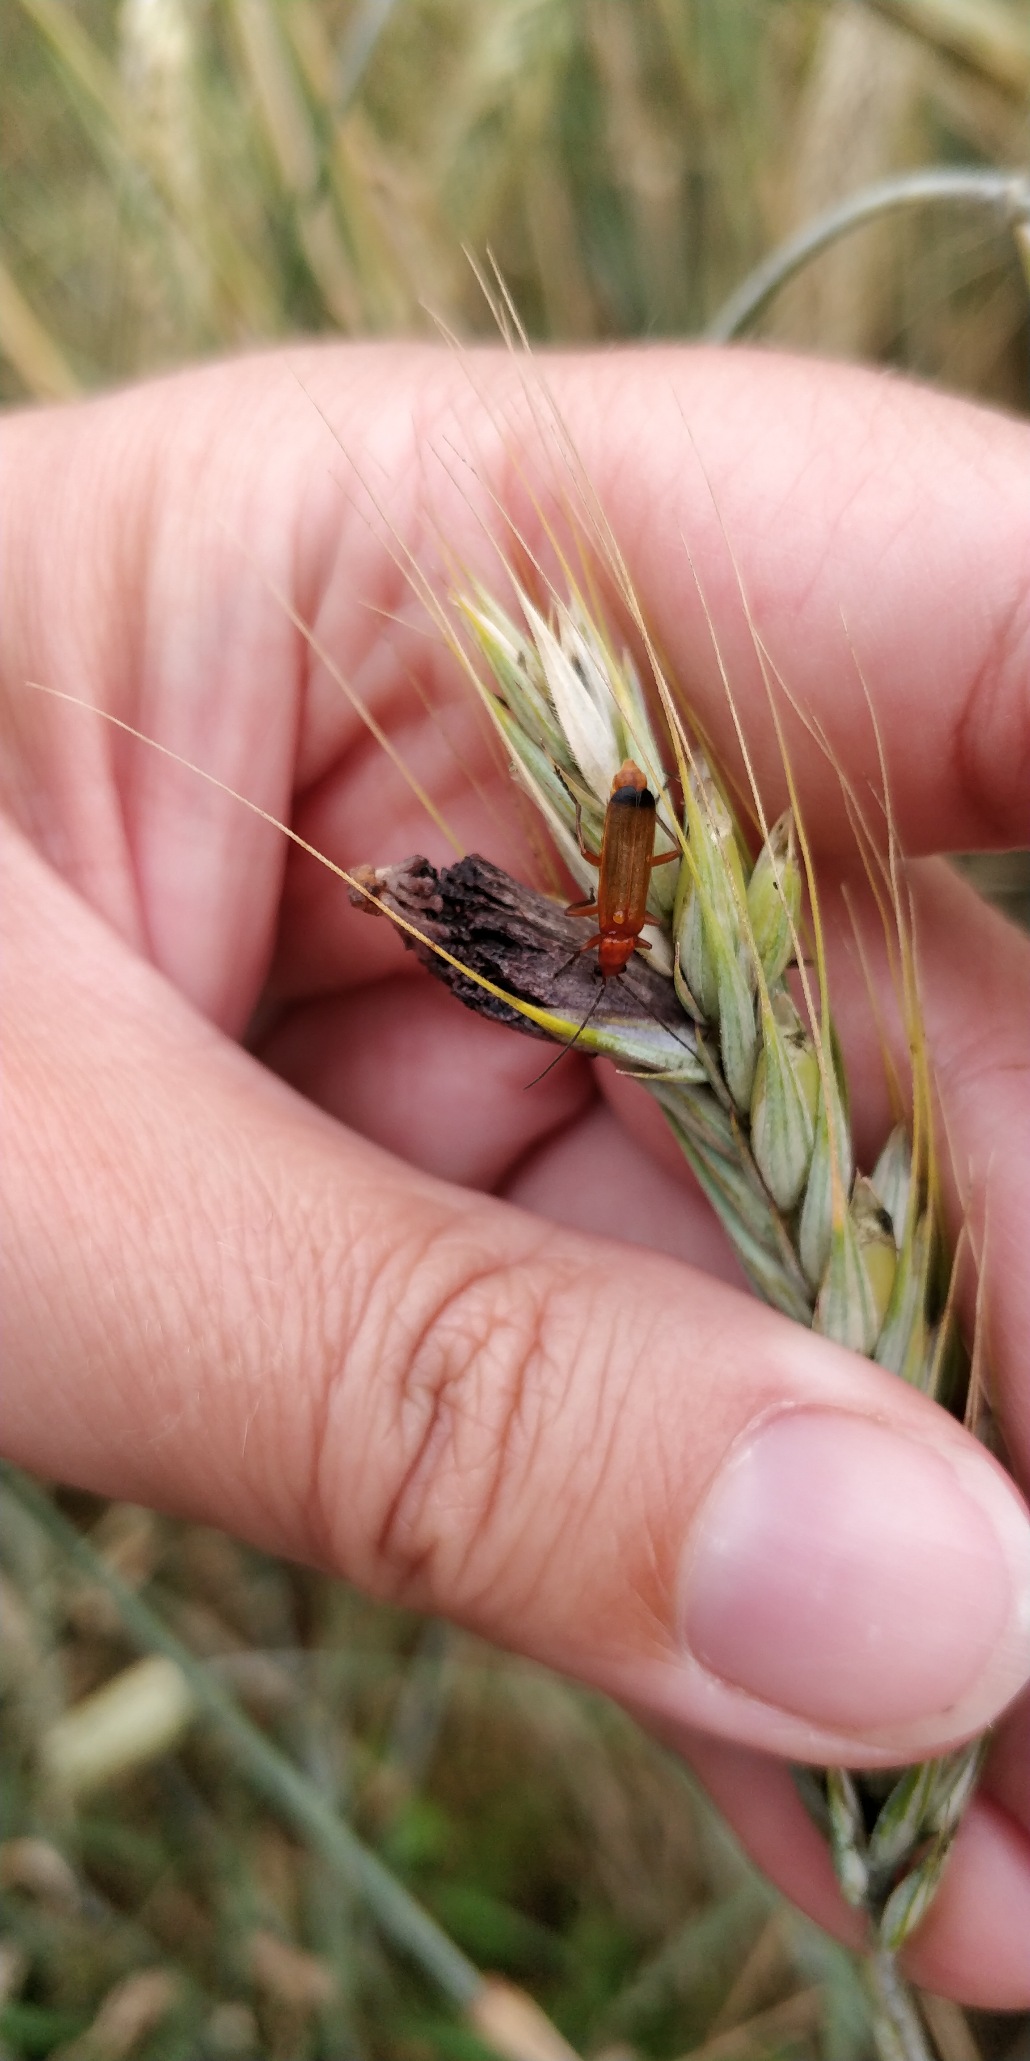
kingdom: Animalia
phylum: Arthropoda
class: Insecta
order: Coleoptera
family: Cantharidae
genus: Rhagonycha
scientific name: Rhagonycha fulva
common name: Præstebille
